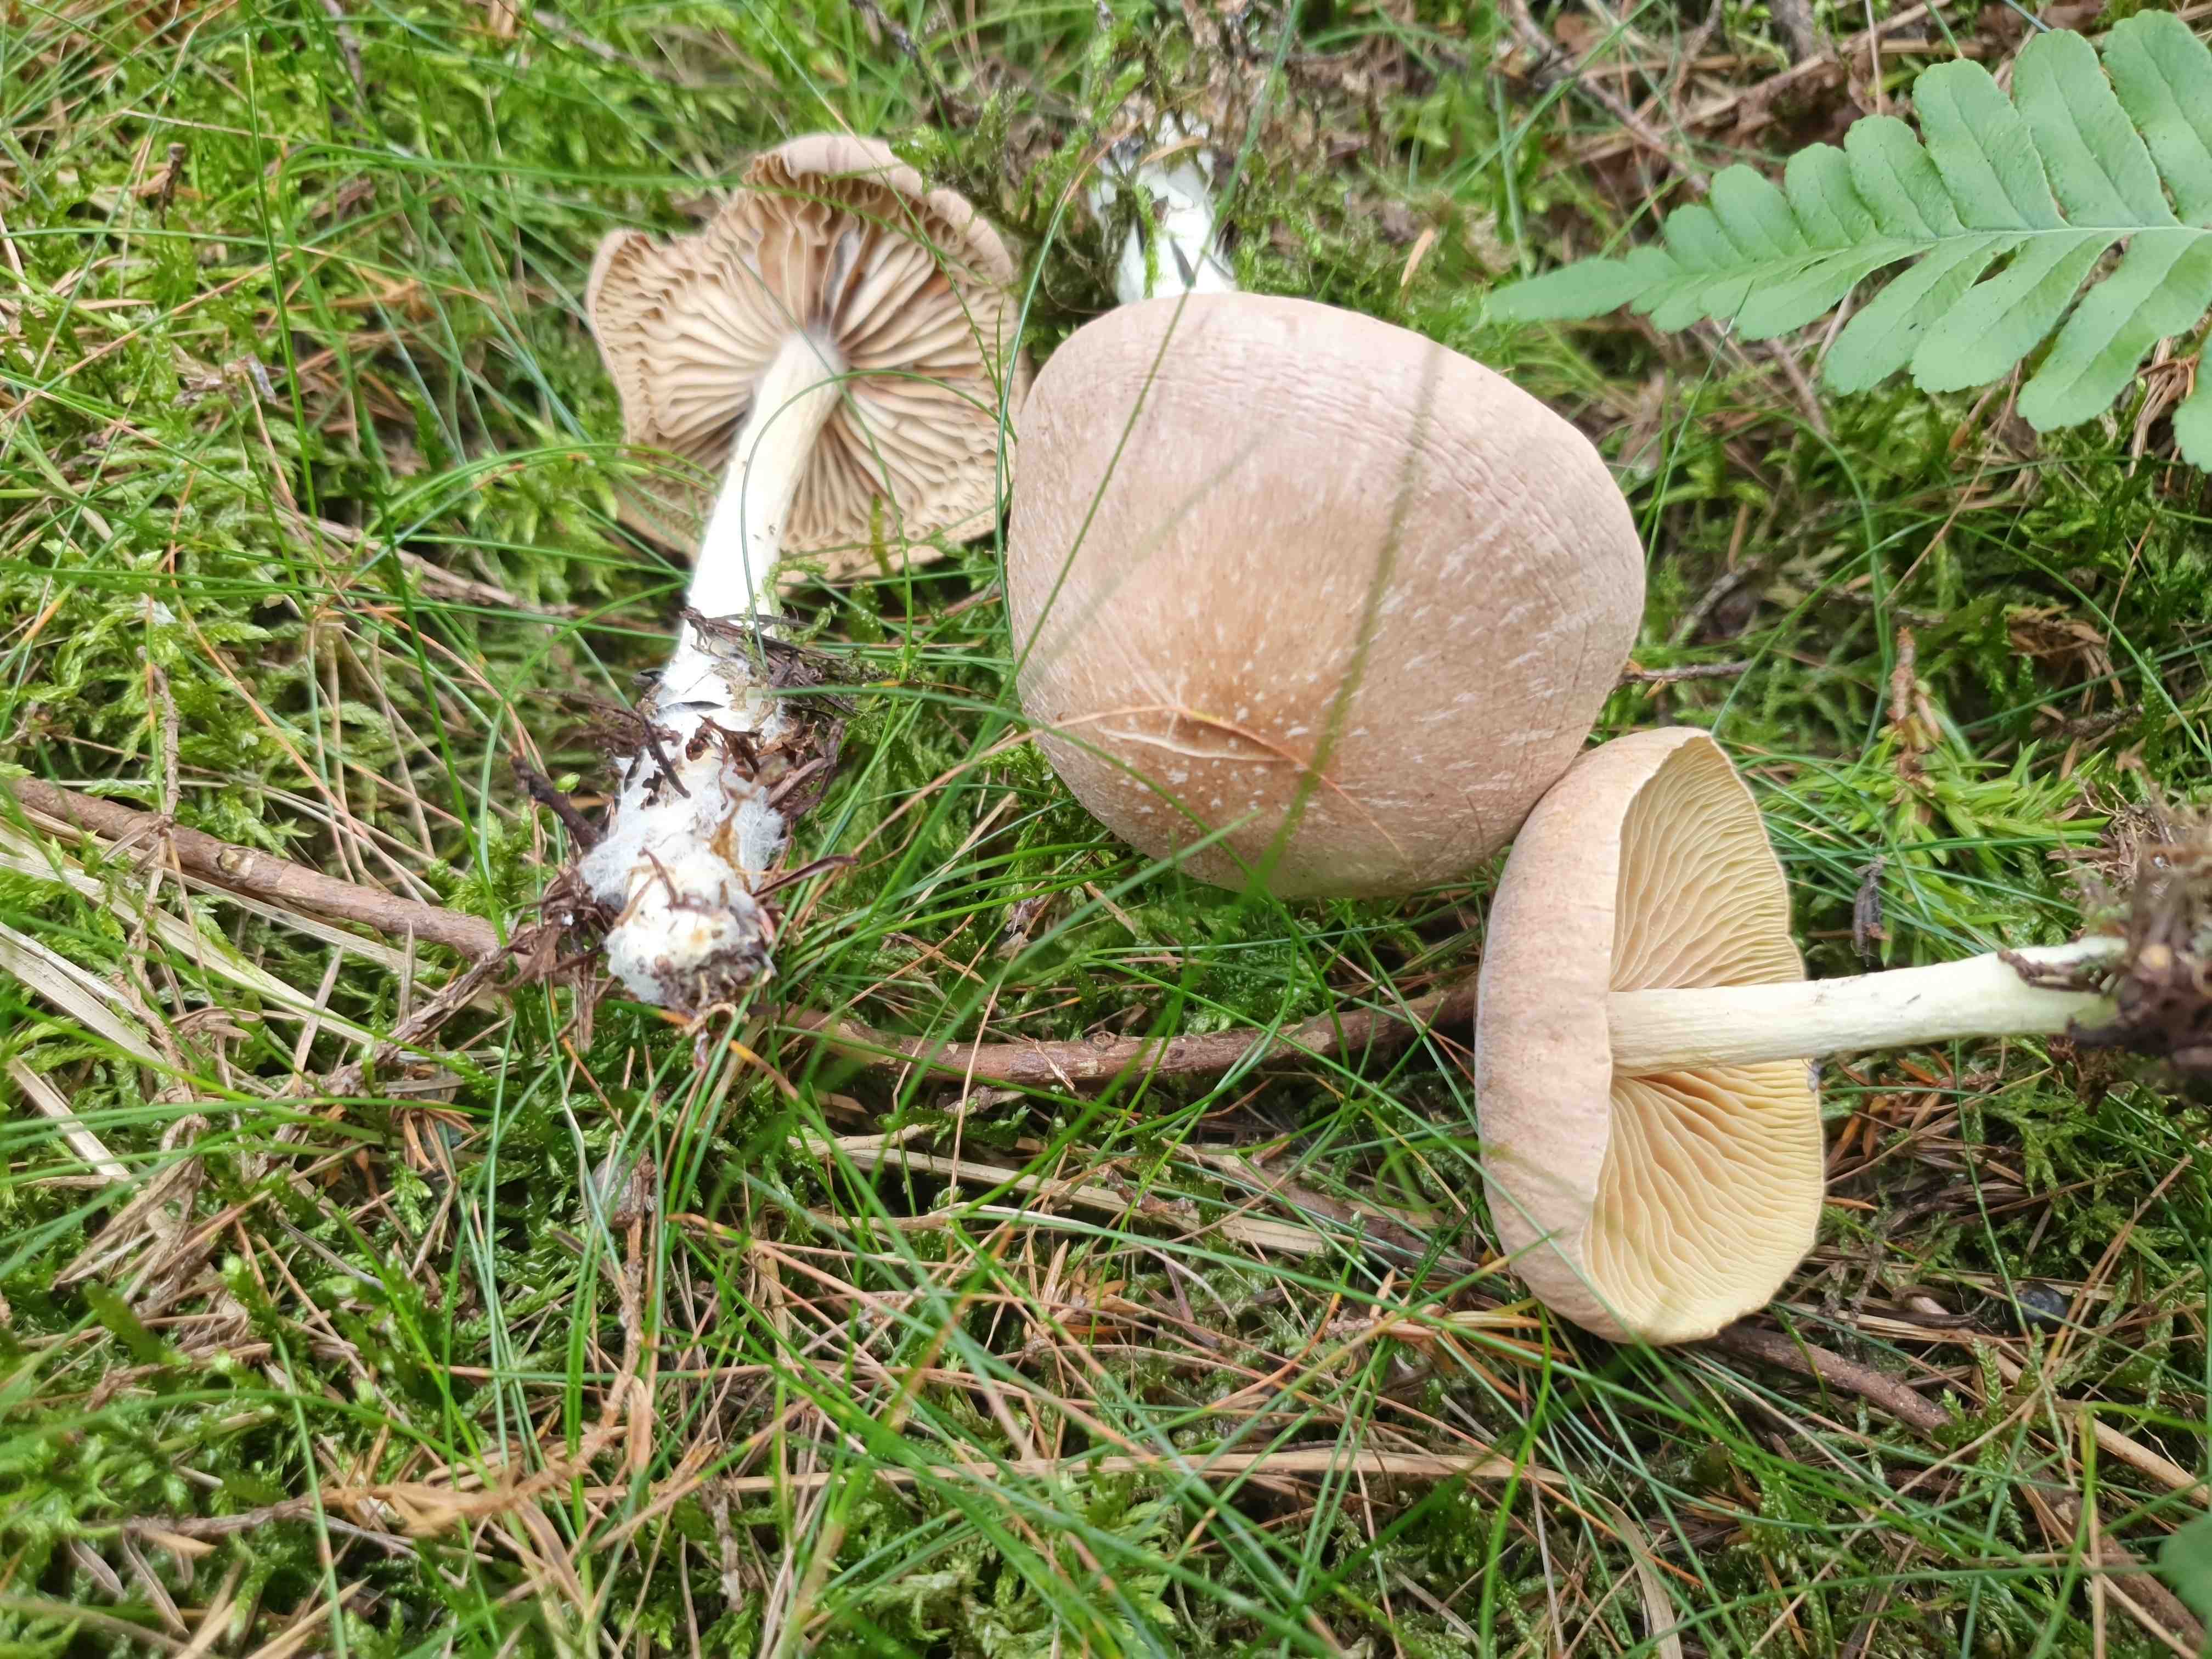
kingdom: Fungi
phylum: Basidiomycota
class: Agaricomycetes
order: Agaricales
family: Omphalotaceae
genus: Collybiopsis
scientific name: Collybiopsis peronata
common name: bestøvlet fladhat
